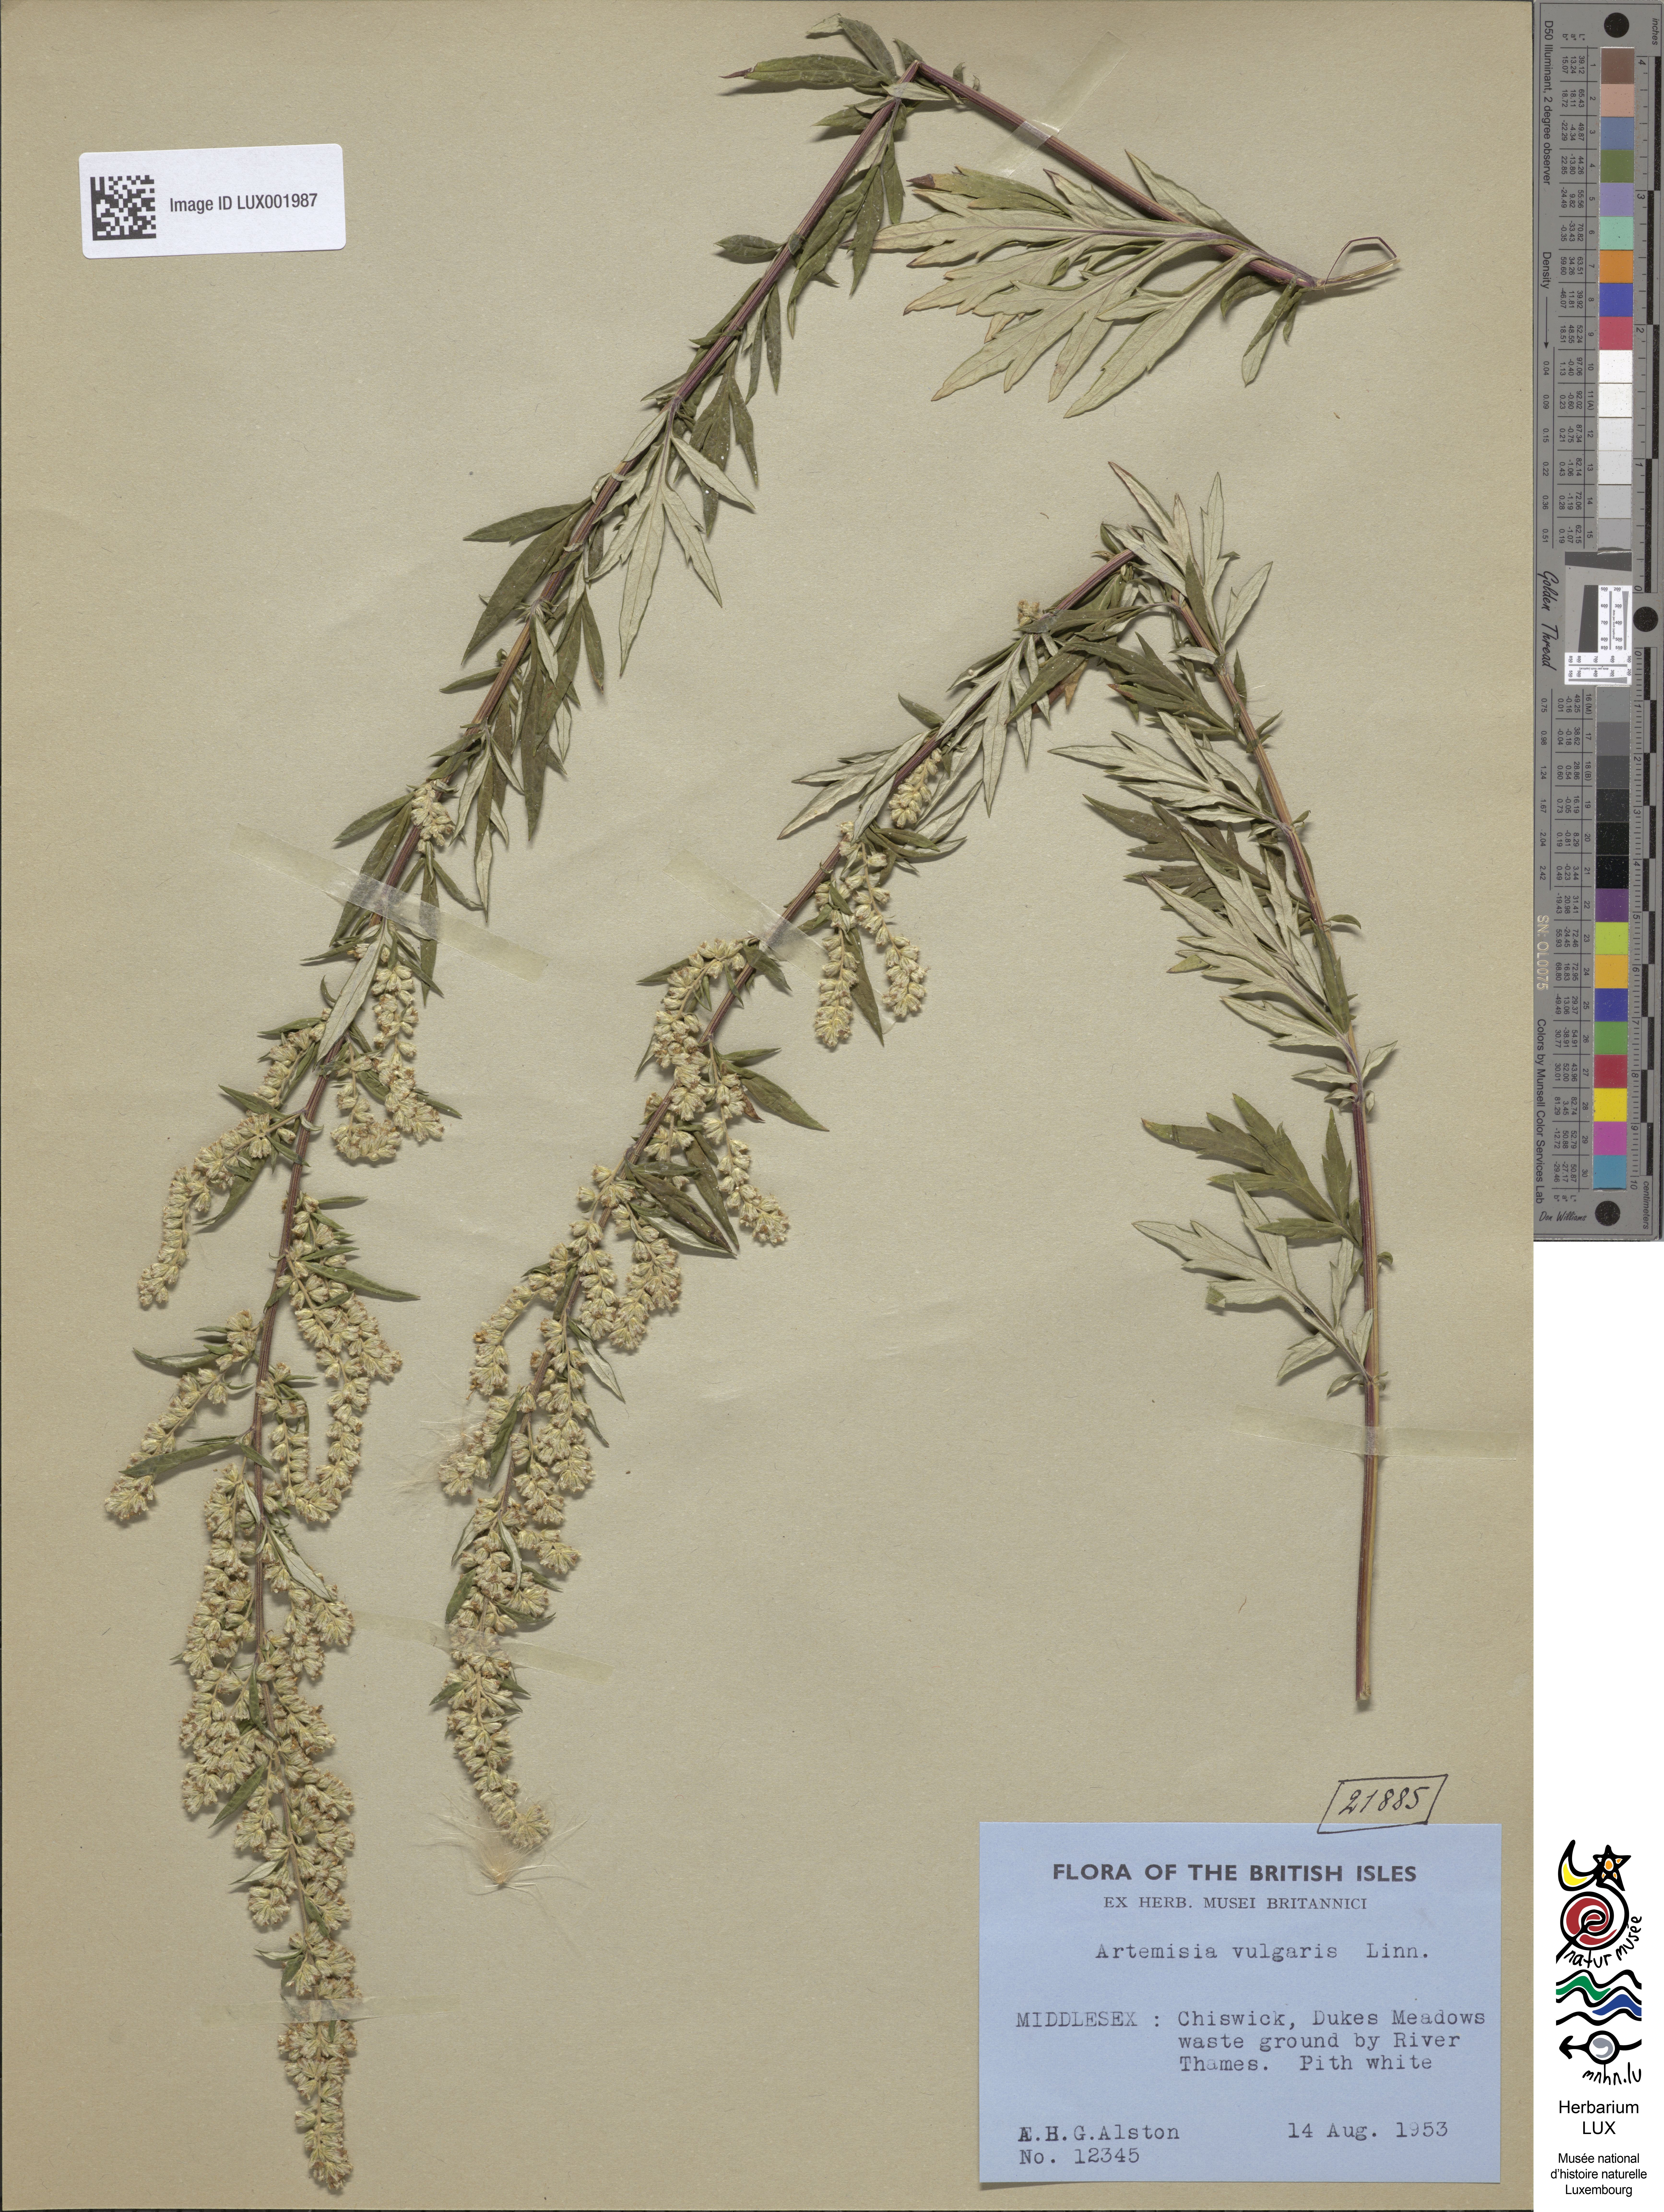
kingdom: Plantae
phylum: Tracheophyta
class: Magnoliopsida
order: Asterales
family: Asteraceae
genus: Artemisia
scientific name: Artemisia vulgaris
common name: Mugwort
